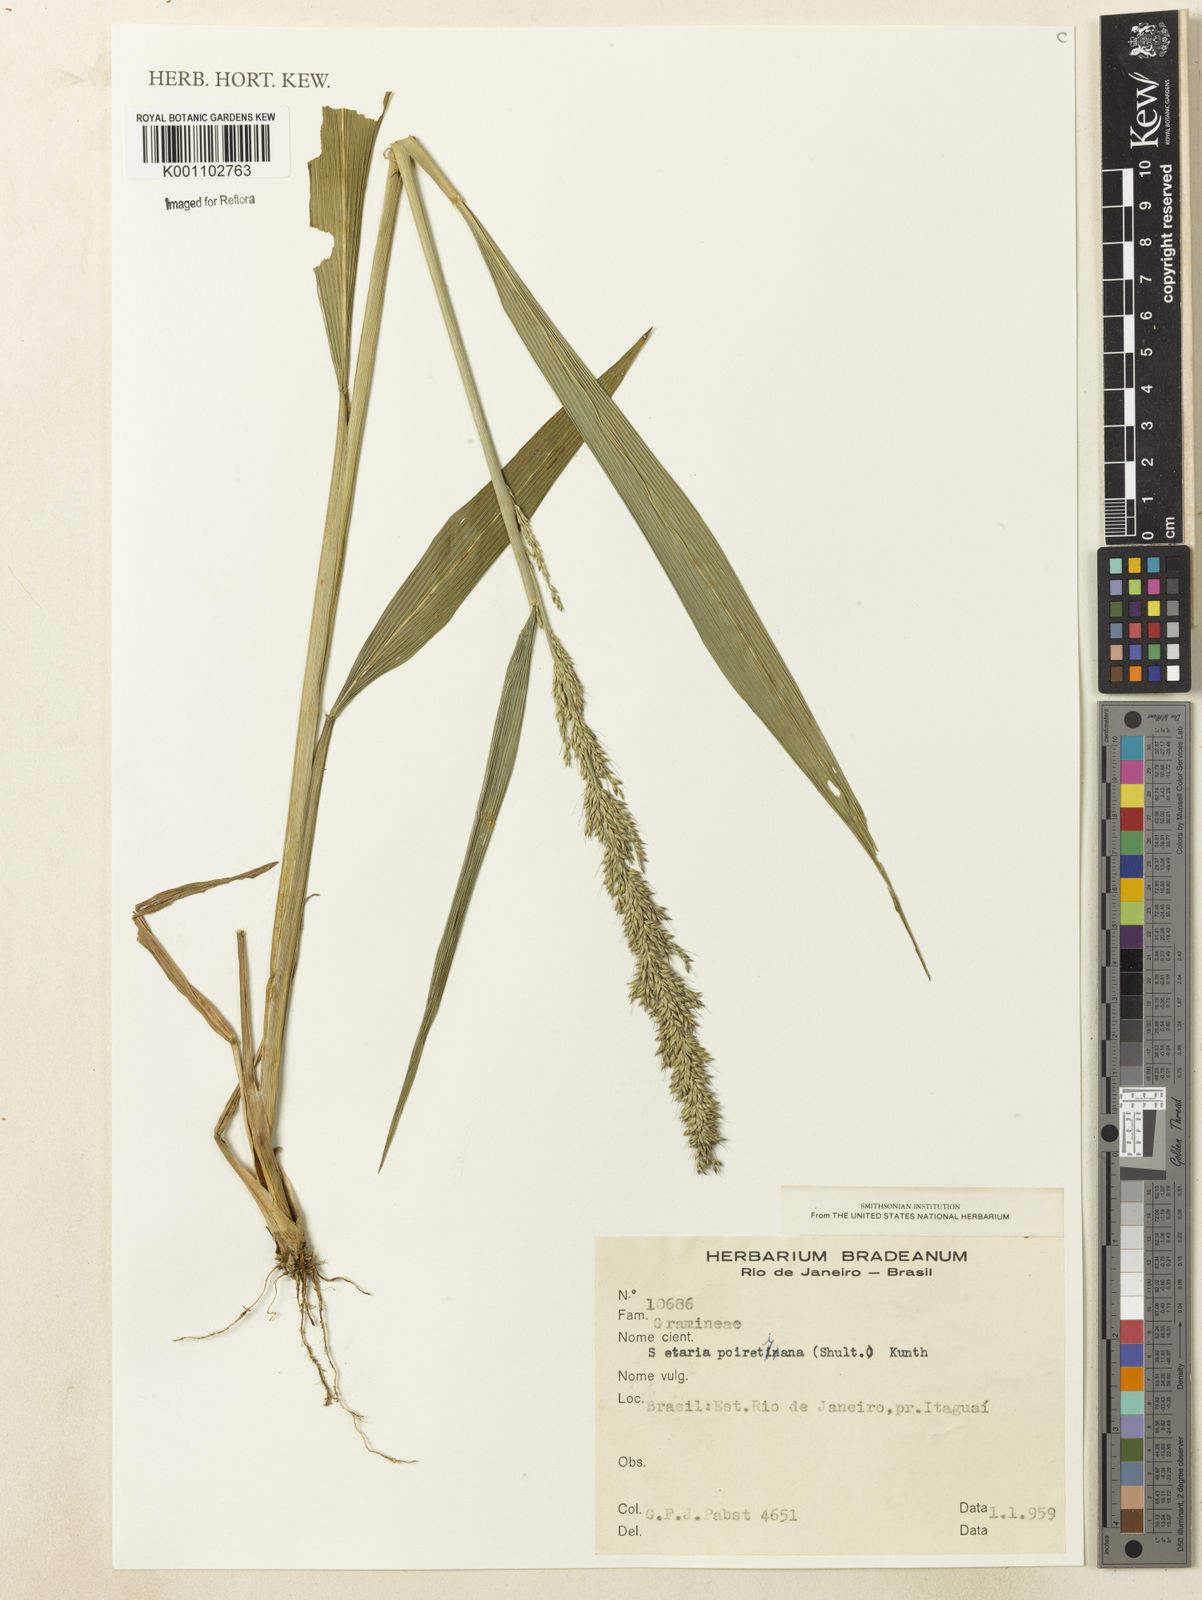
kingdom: Plantae
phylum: Tracheophyta
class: Liliopsida
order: Poales
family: Poaceae
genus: Setaria
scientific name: Setaria poiretiana
